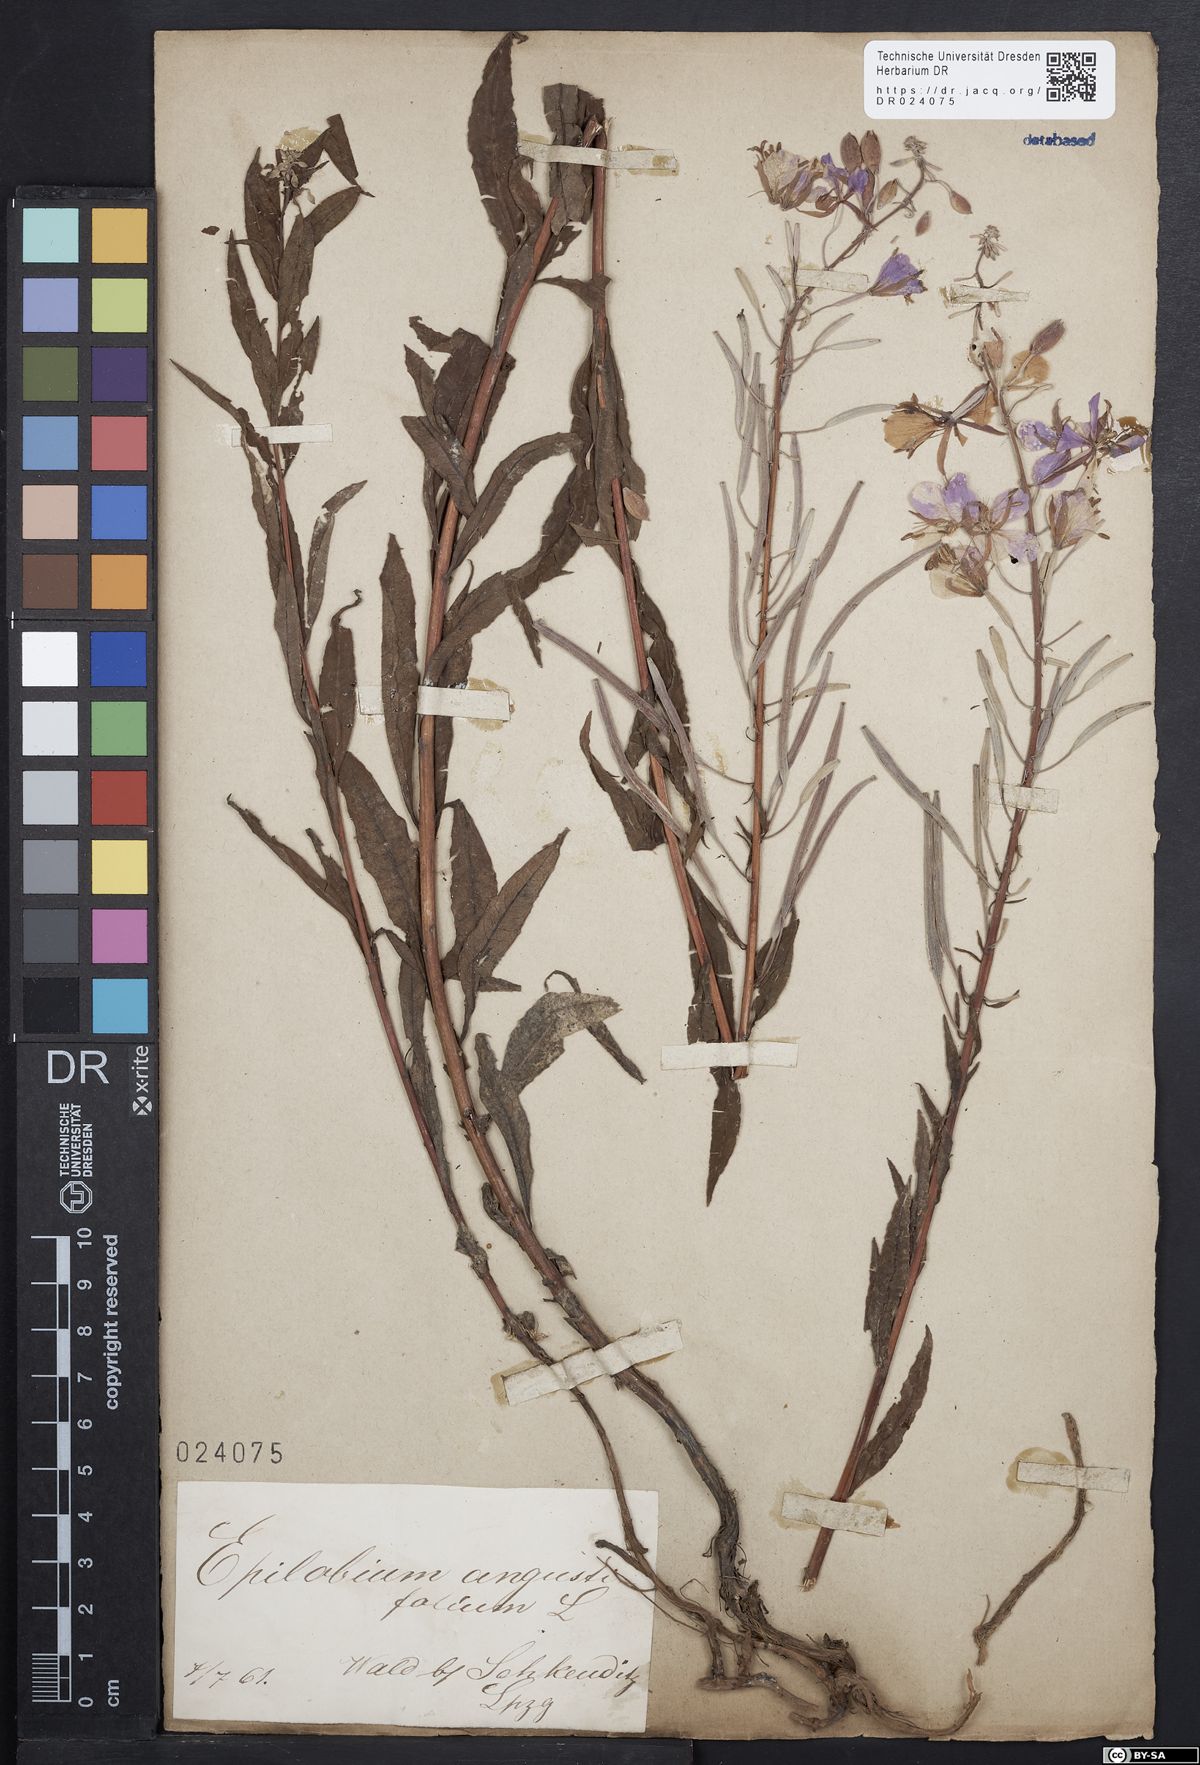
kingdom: Plantae
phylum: Tracheophyta
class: Magnoliopsida
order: Myrtales
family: Onagraceae
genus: Chamaenerion
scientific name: Chamaenerion angustifolium
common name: Fireweed
